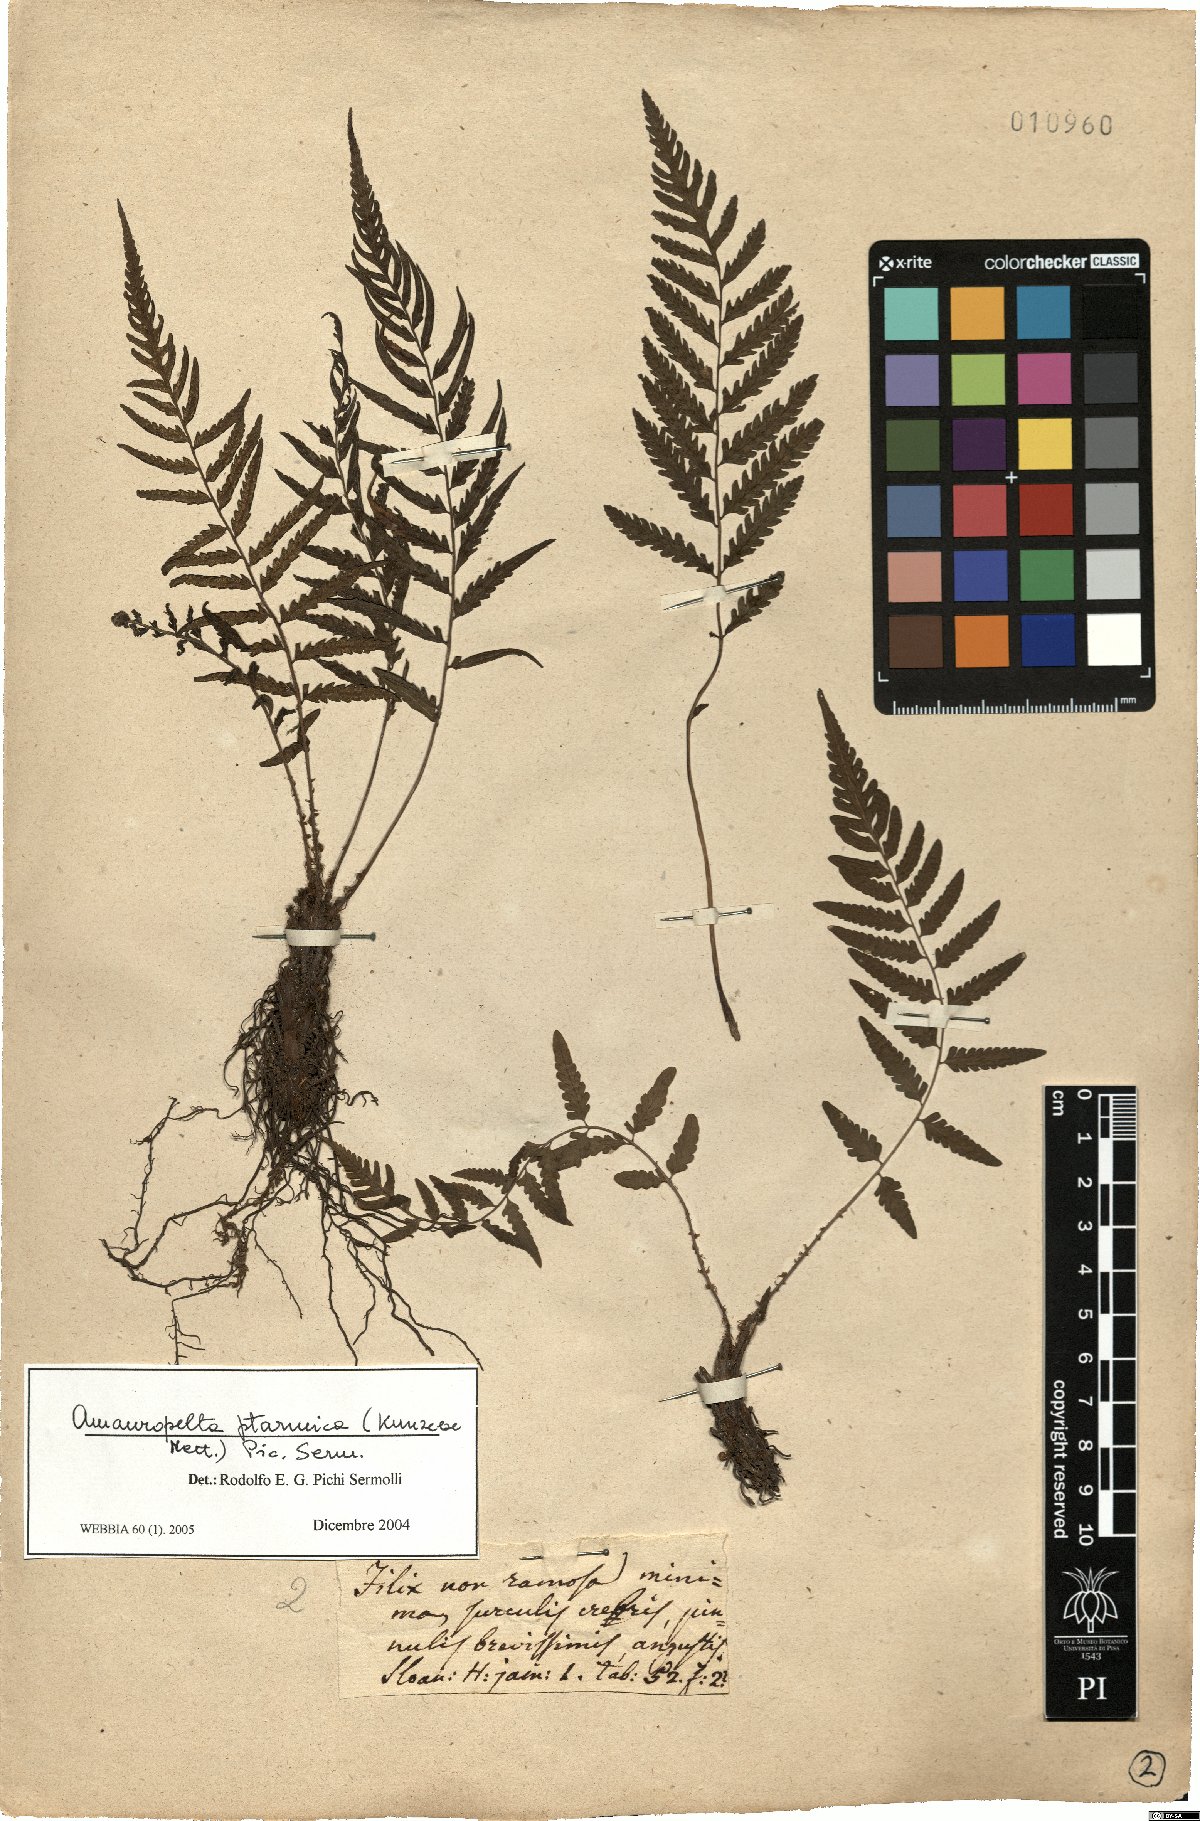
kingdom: Plantae
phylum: Tracheophyta
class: Polypodiopsida
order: Polypodiales
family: Thelypteridaceae
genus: Amauropelta
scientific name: Amauropelta ptarmica
